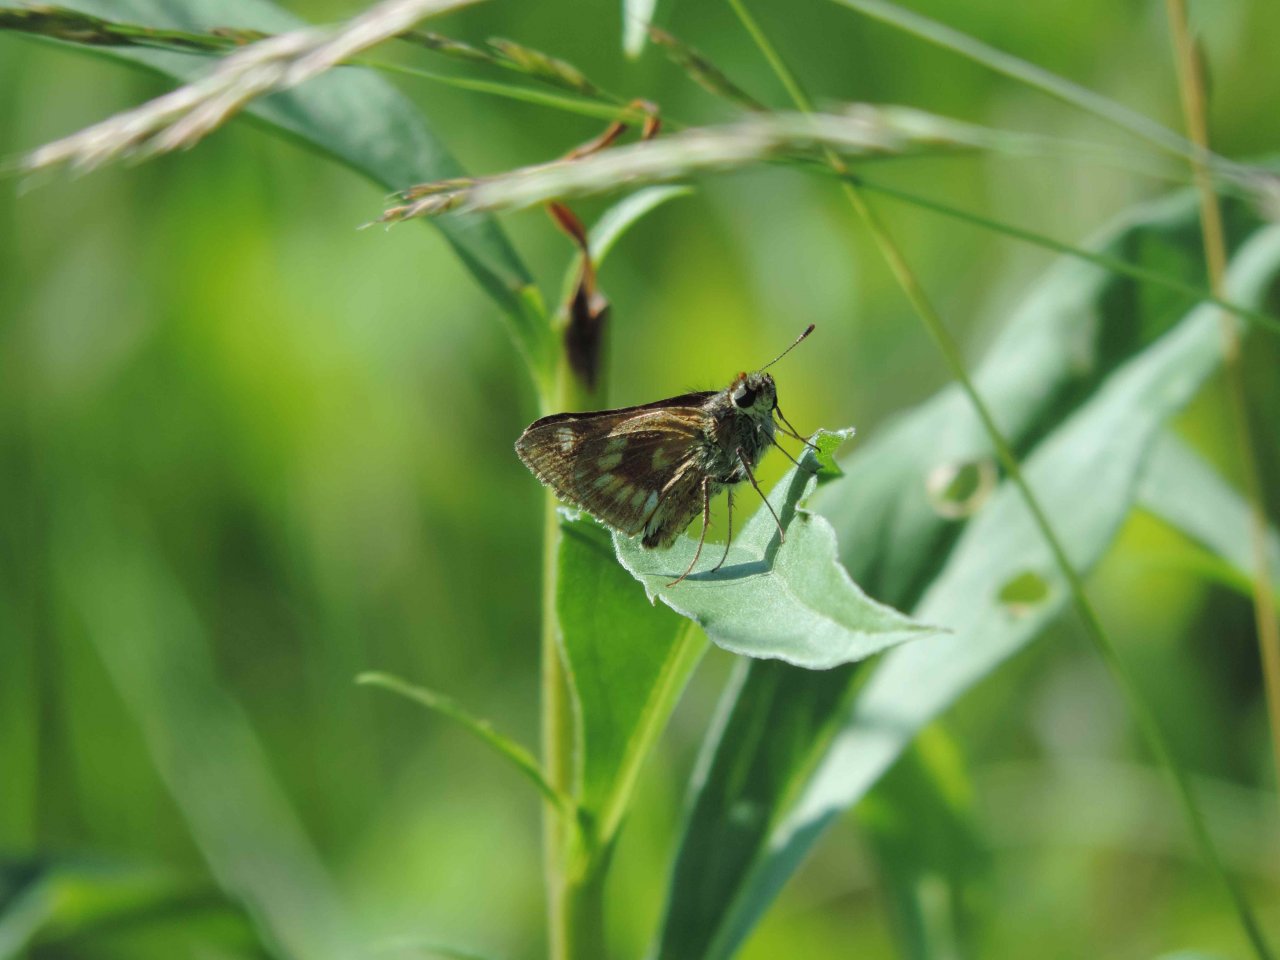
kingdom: Animalia
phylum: Arthropoda
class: Insecta
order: Lepidoptera
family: Hesperiidae
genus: Polites
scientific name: Polites
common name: Long Dash Skipper
